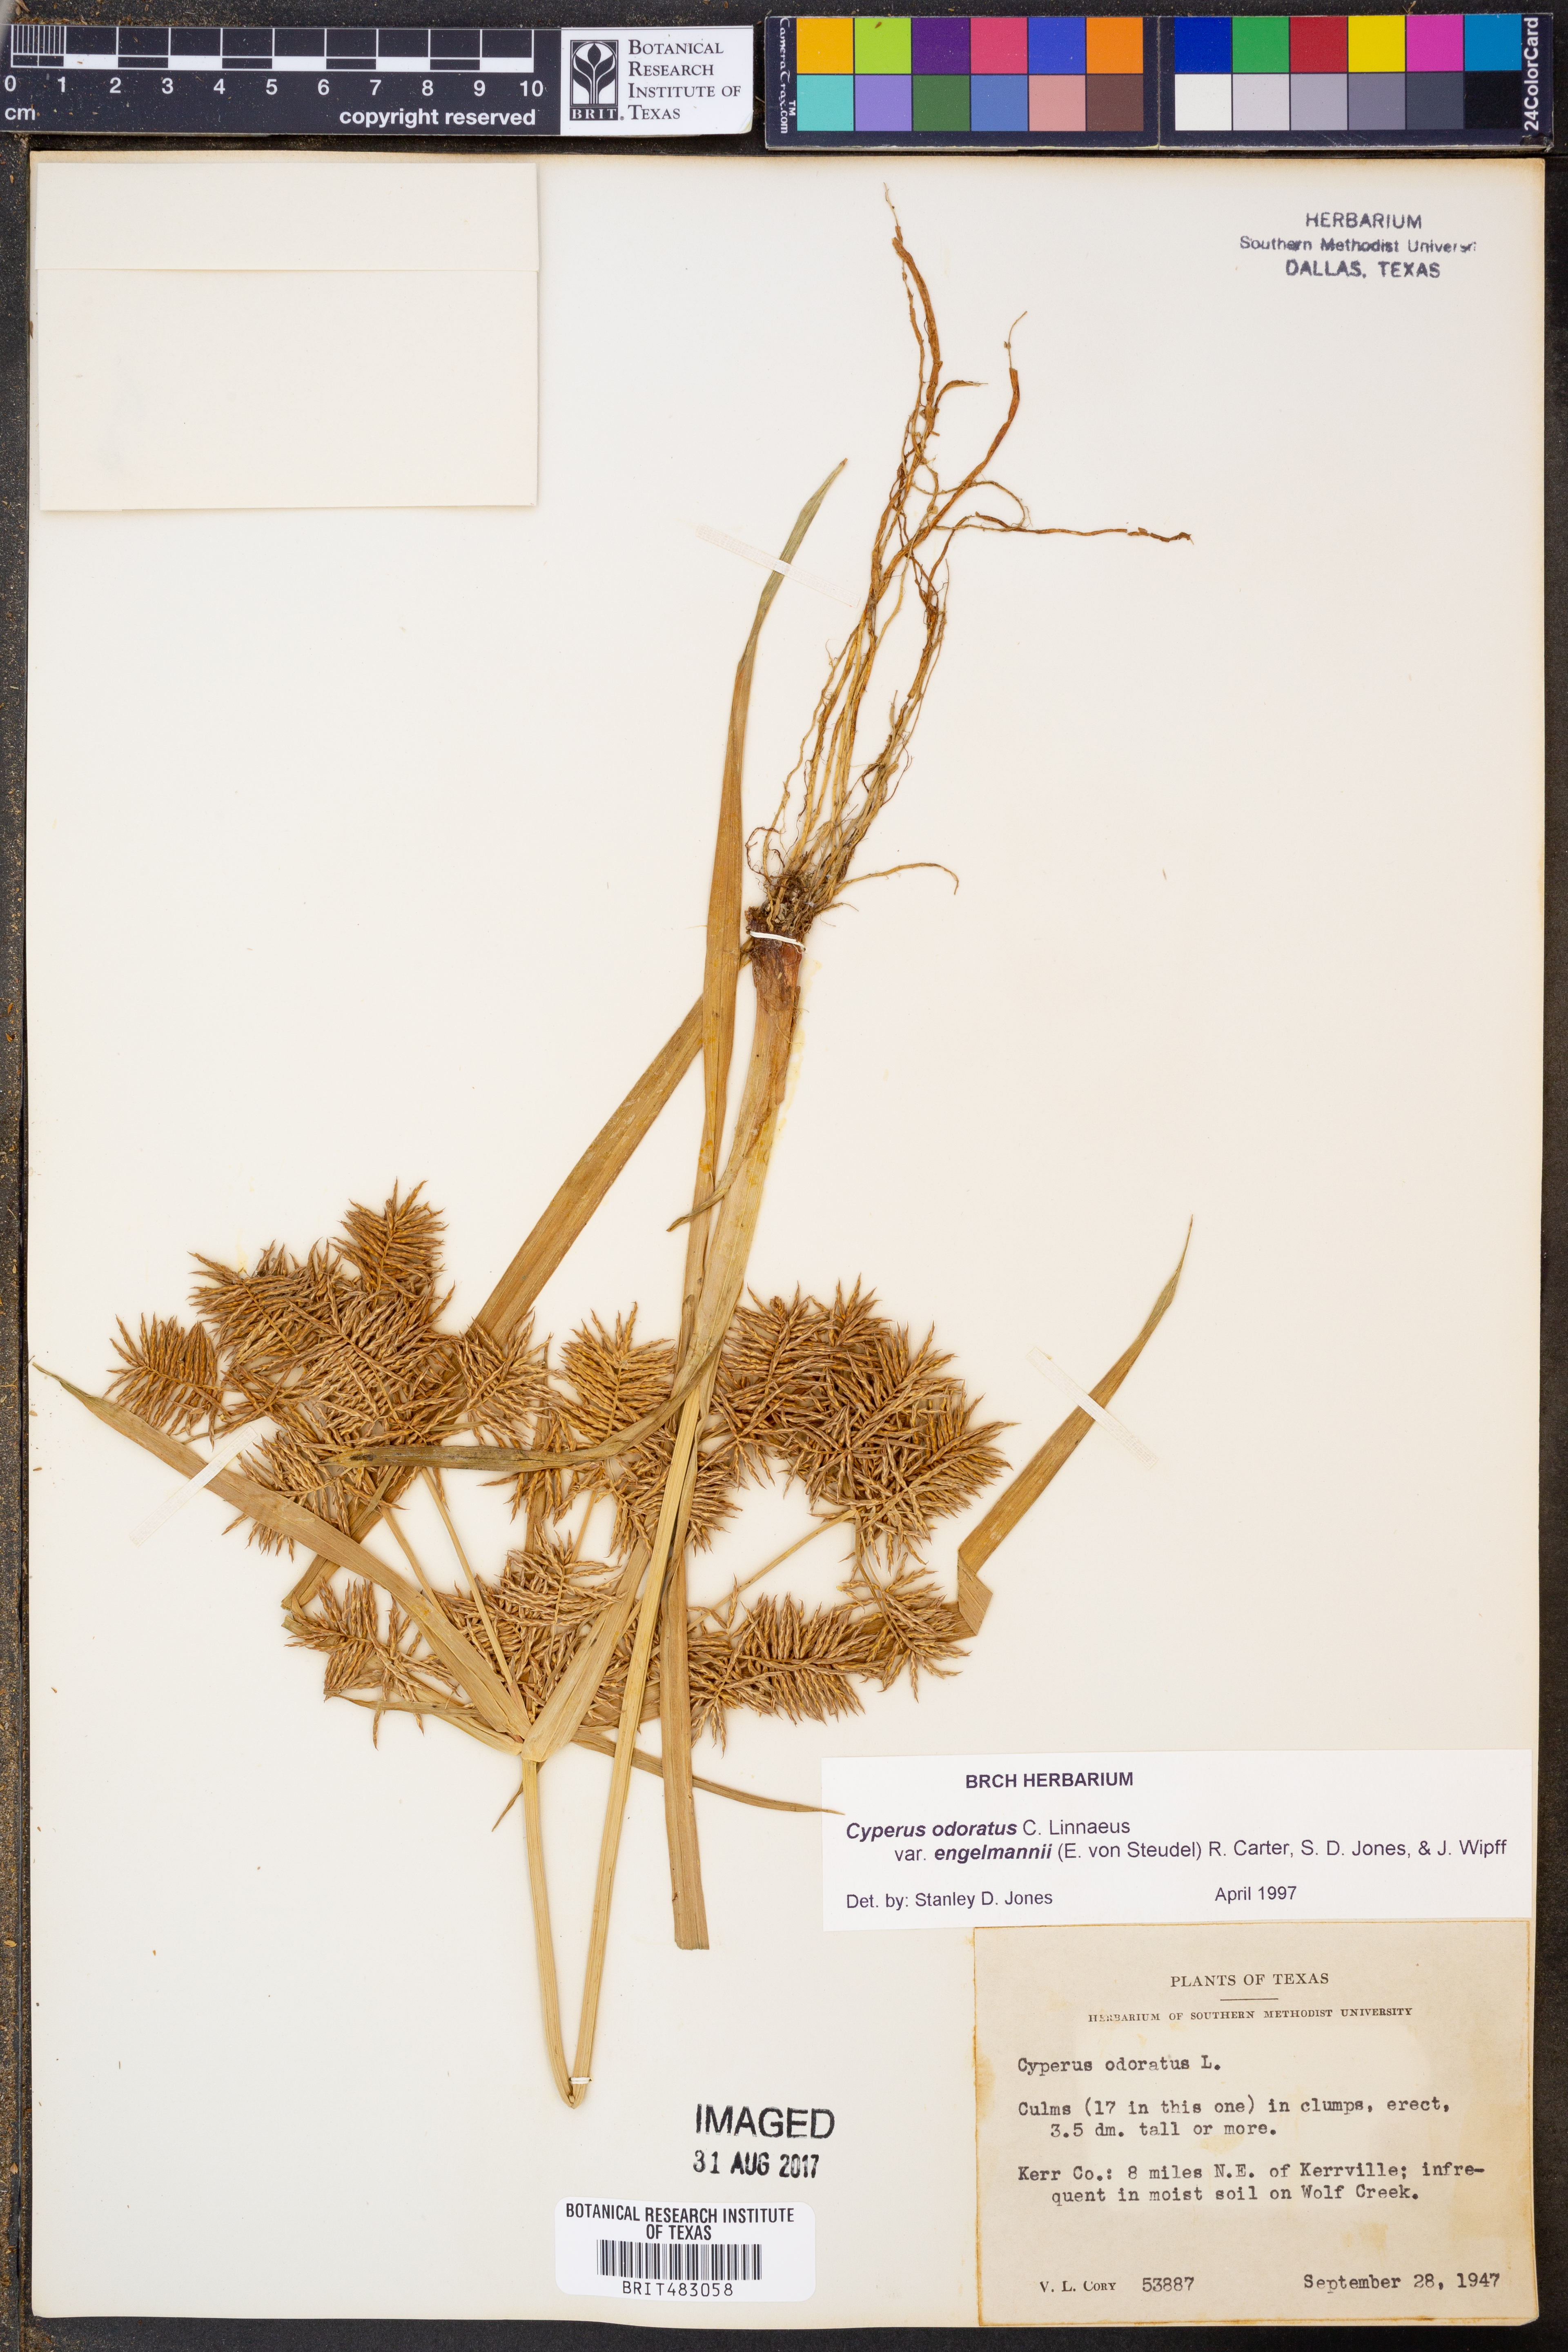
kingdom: Plantae
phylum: Tracheophyta
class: Liliopsida
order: Poales
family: Cyperaceae
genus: Cyperus
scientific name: Cyperus odoratus
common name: Fragrant flatsedge
